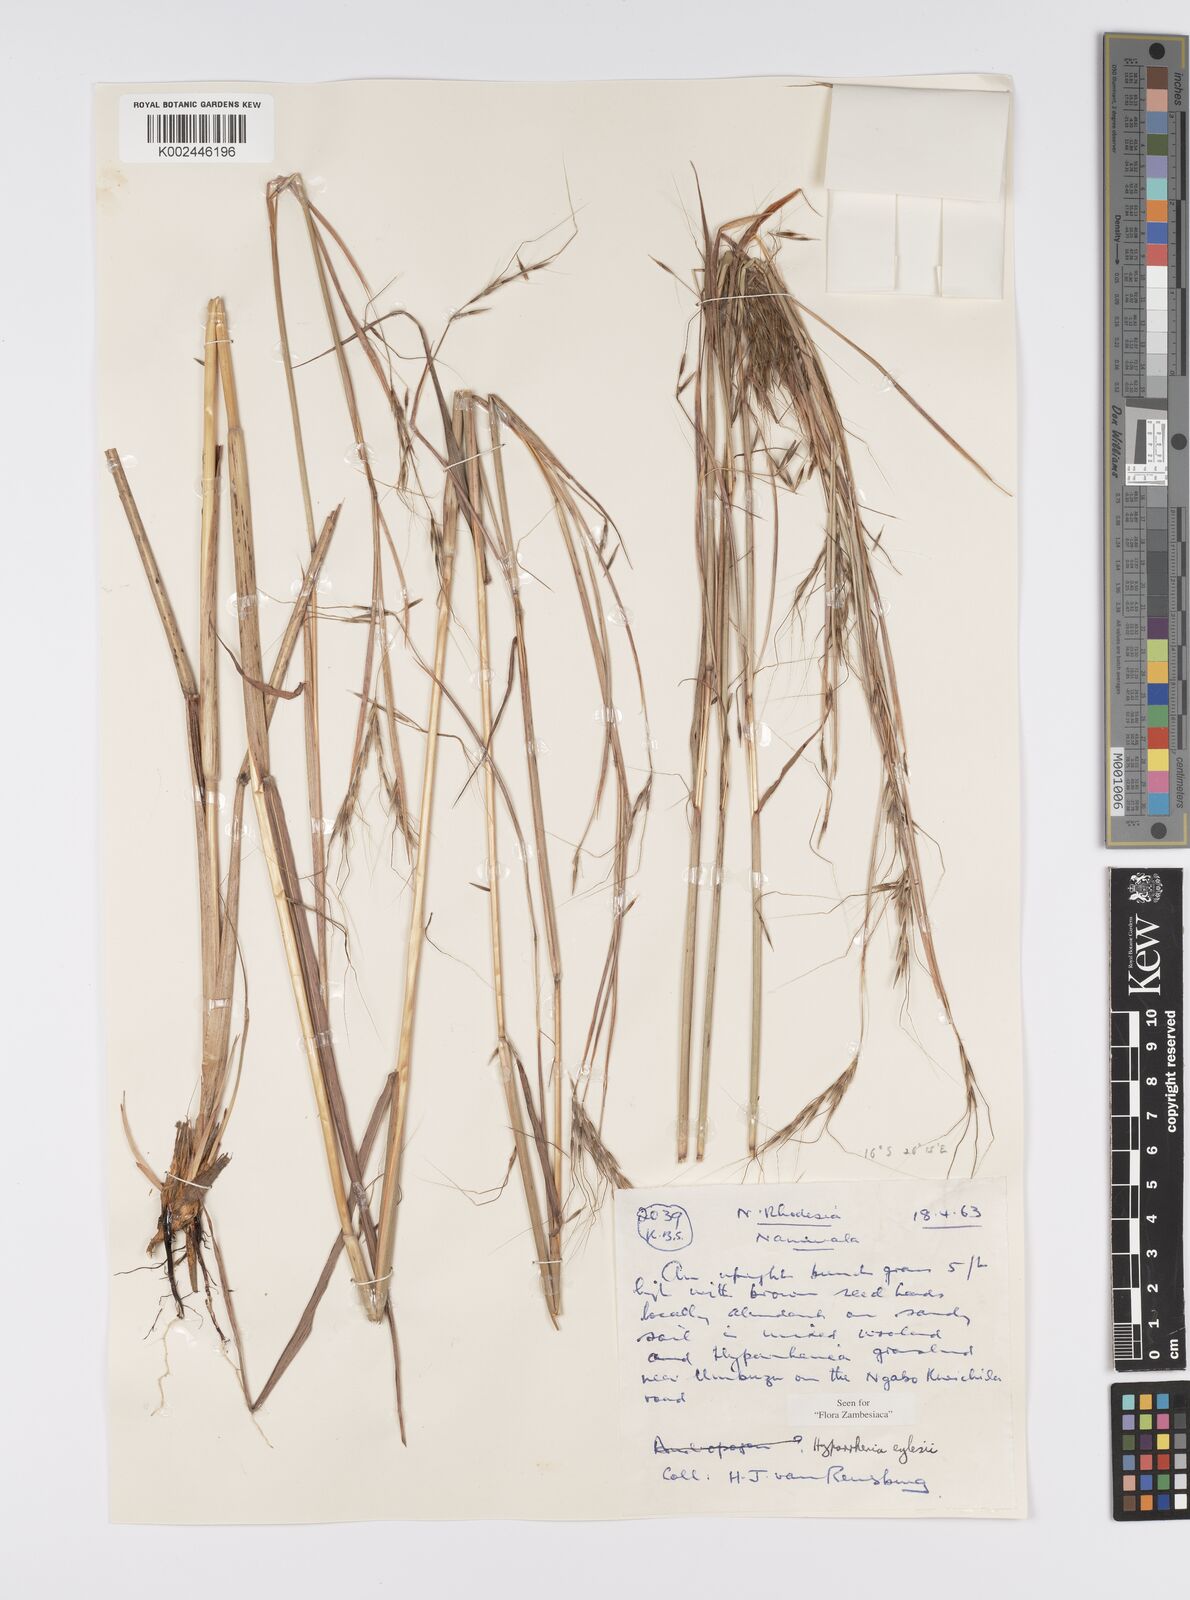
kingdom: Plantae
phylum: Tracheophyta
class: Liliopsida
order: Poales
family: Poaceae
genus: Elymandra
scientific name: Elymandra grallata
